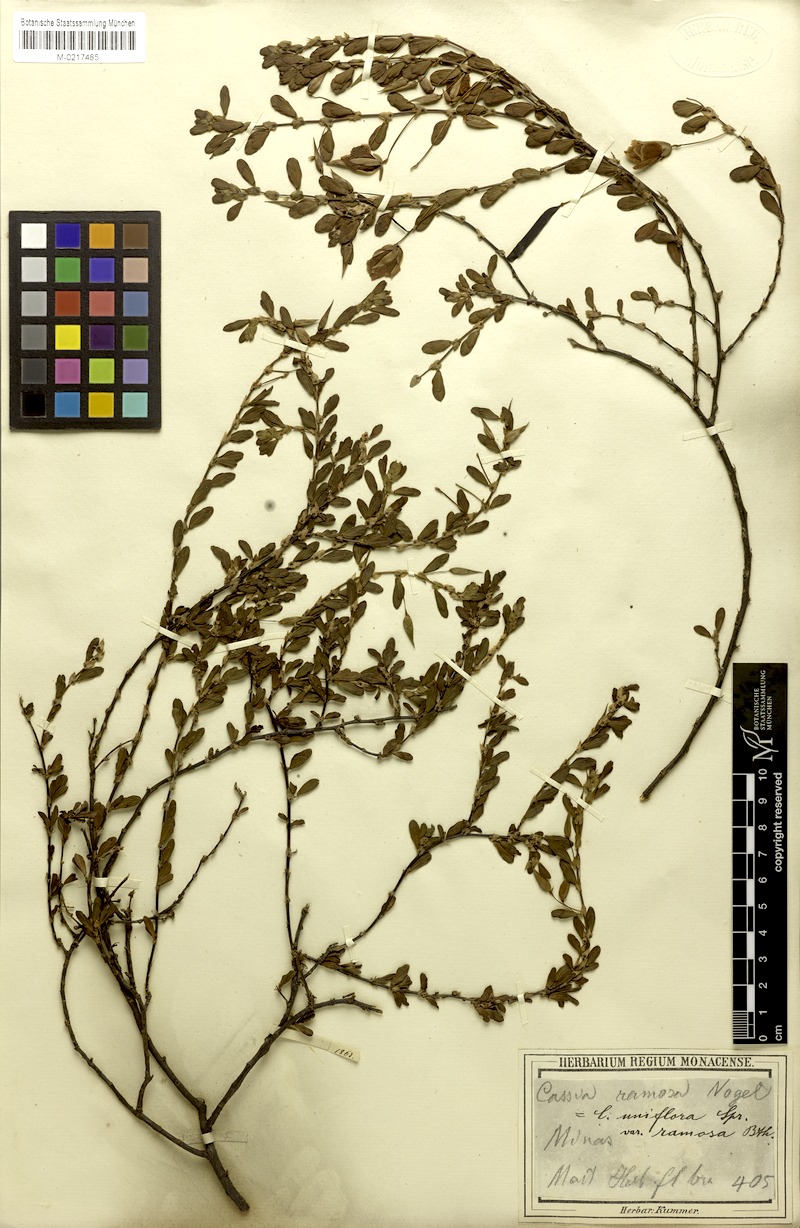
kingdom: Plantae
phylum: Tracheophyta
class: Magnoliopsida
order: Fabales
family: Fabaceae
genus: Chamaecrista
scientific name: Chamaecrista ramosa
